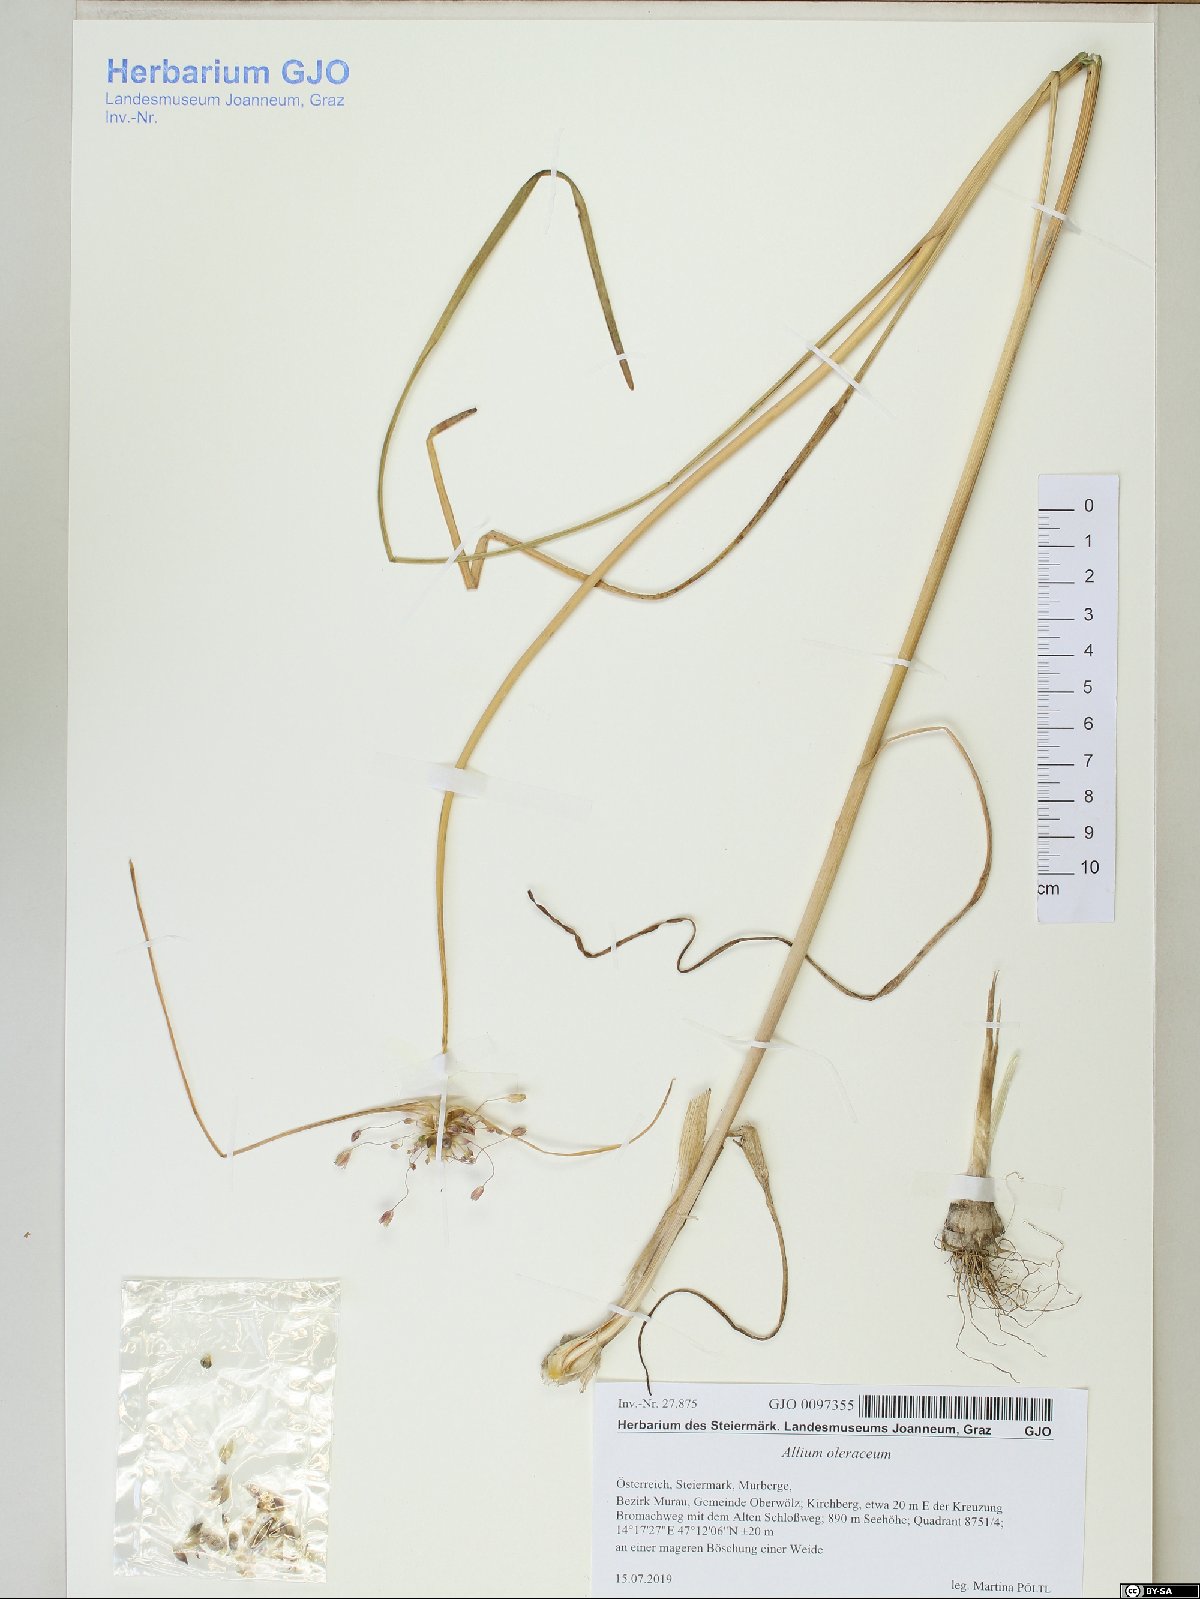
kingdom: Plantae
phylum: Tracheophyta
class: Liliopsida
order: Asparagales
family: Amaryllidaceae
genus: Allium
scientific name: Allium oleraceum
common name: Field garlic
